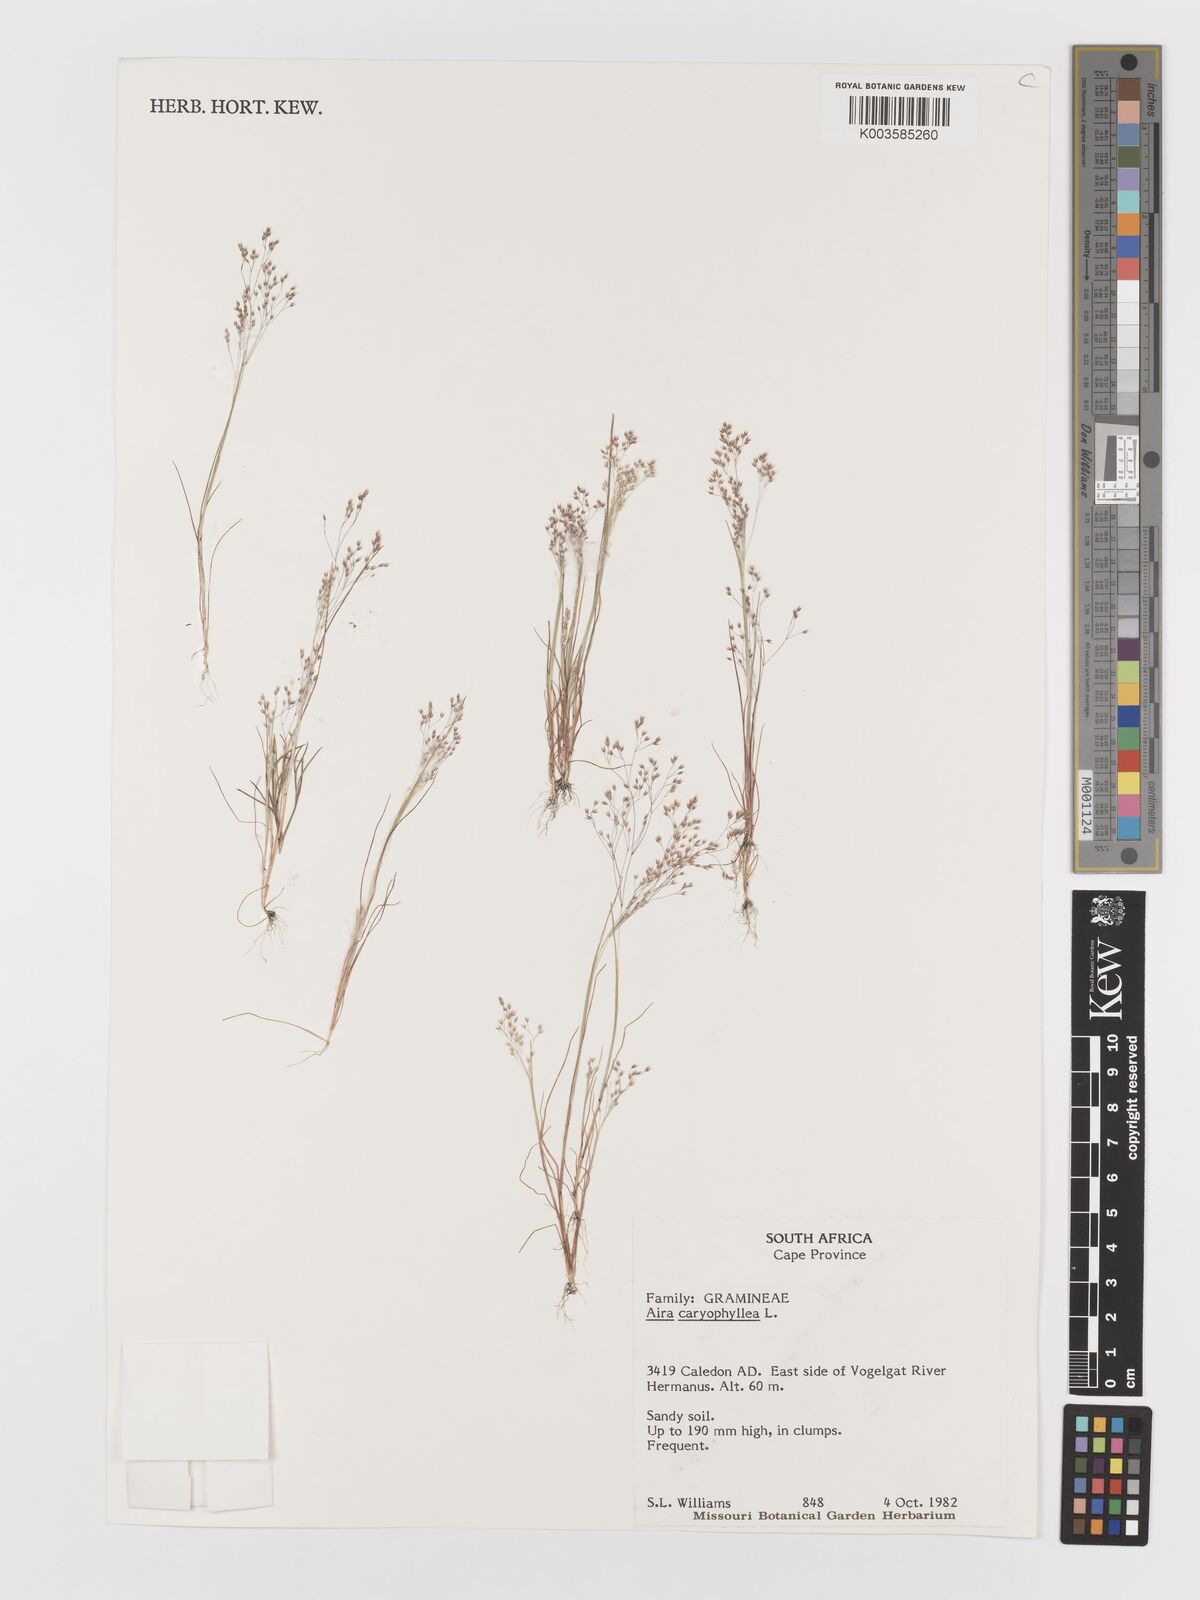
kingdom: Plantae
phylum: Tracheophyta
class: Liliopsida
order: Poales
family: Poaceae
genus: Aira
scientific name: Aira cupaniana
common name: Silver hairgrass
